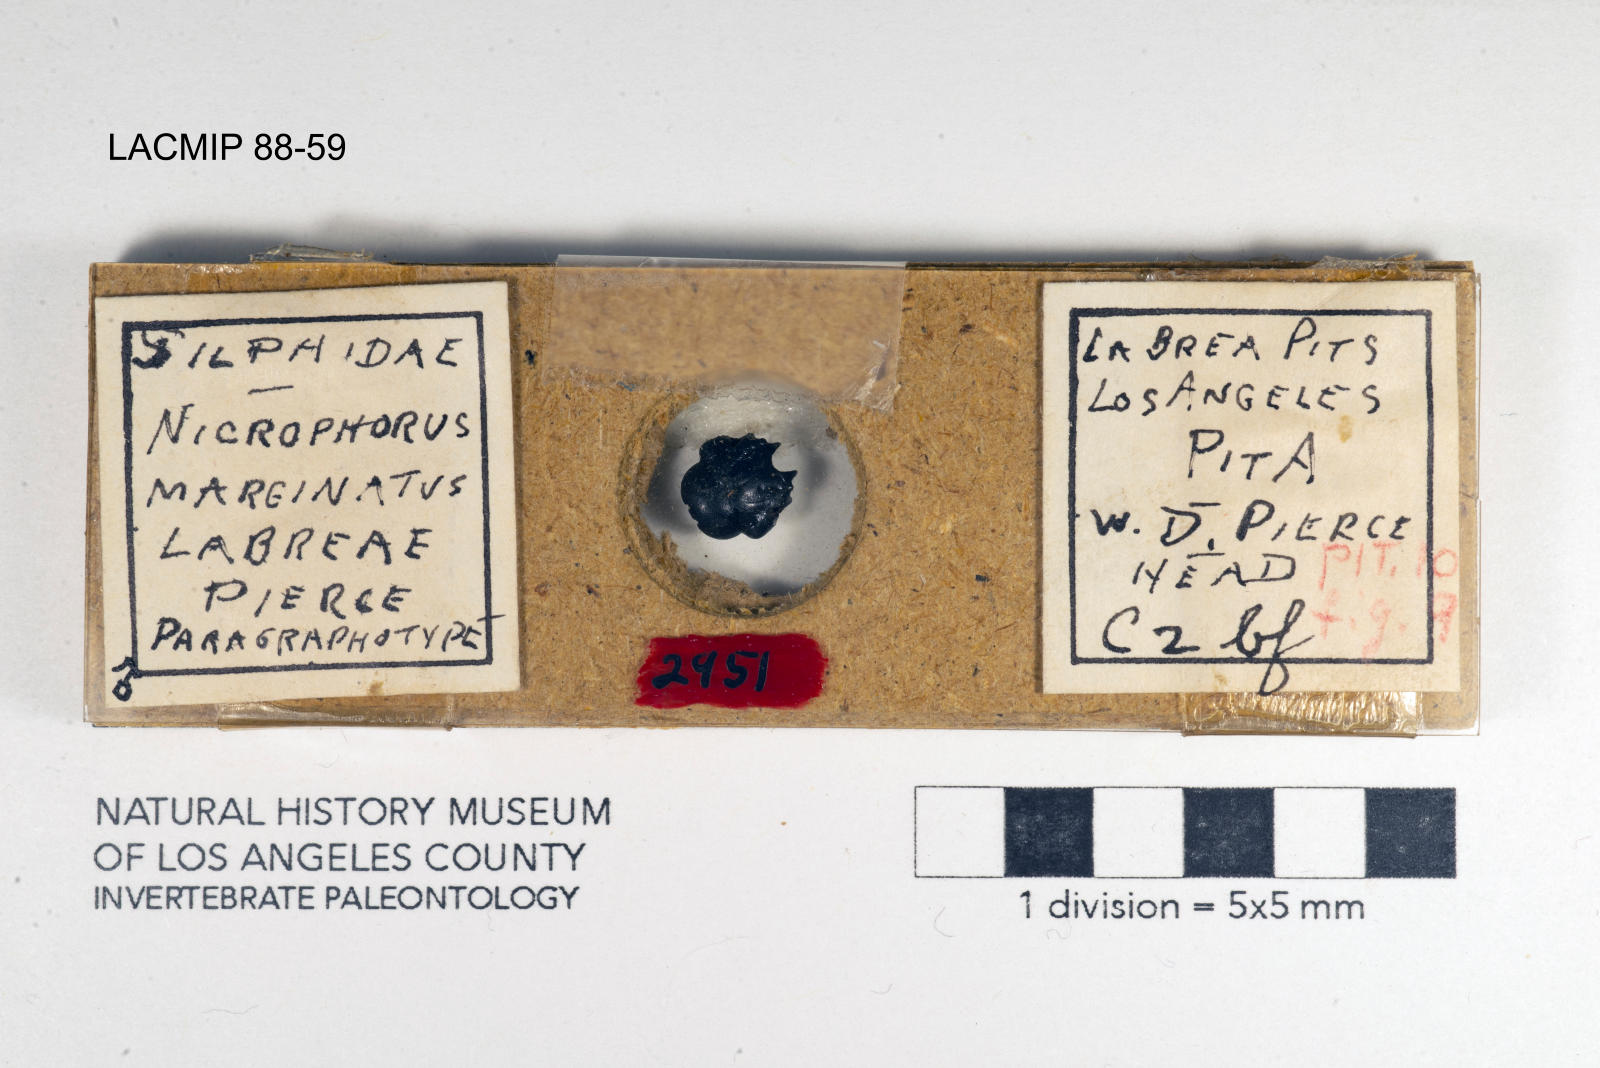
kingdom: Animalia
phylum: Arthropoda
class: Insecta
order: Coleoptera
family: Staphylinidae
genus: Nicrophorus
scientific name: Nicrophorus marginatus
